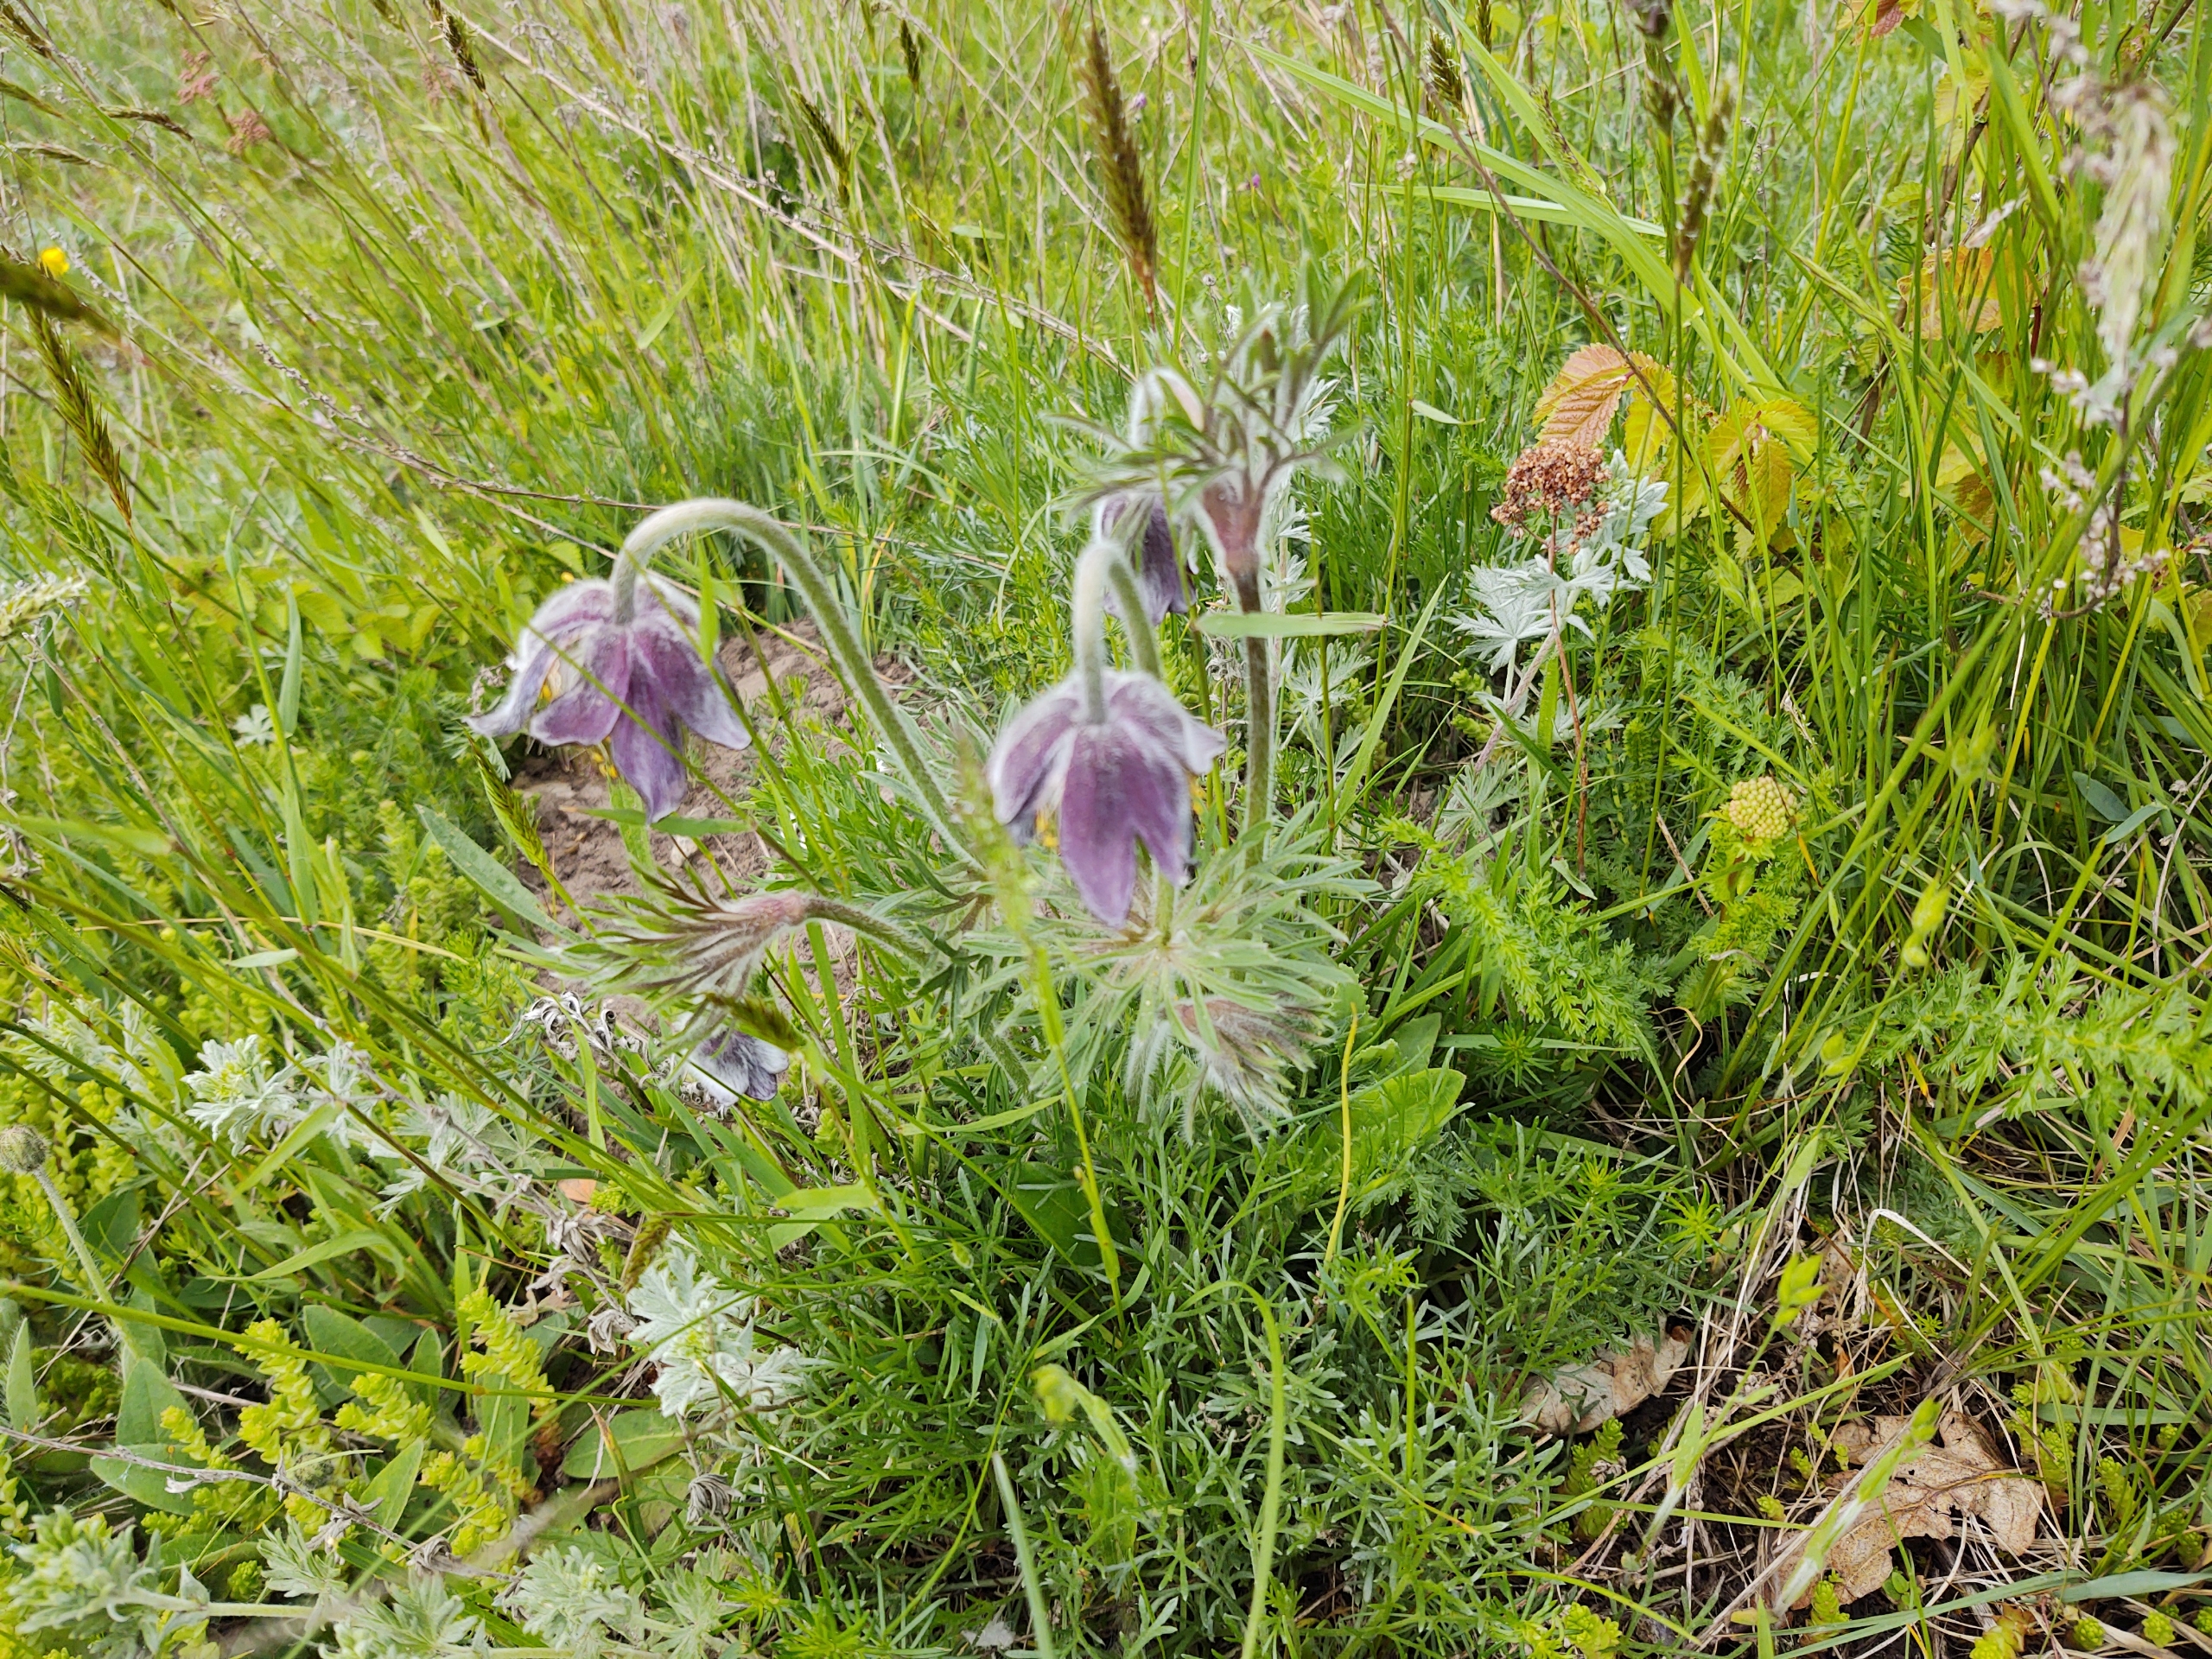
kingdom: Plantae
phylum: Tracheophyta
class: Magnoliopsida
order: Ranunculales
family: Ranunculaceae
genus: Pulsatilla
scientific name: Pulsatilla pratensis
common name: Nikkende kobjælde
